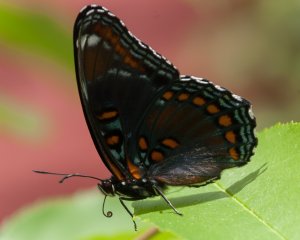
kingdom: Animalia
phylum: Arthropoda
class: Insecta
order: Lepidoptera
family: Nymphalidae
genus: Limenitis
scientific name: Limenitis astyanax
